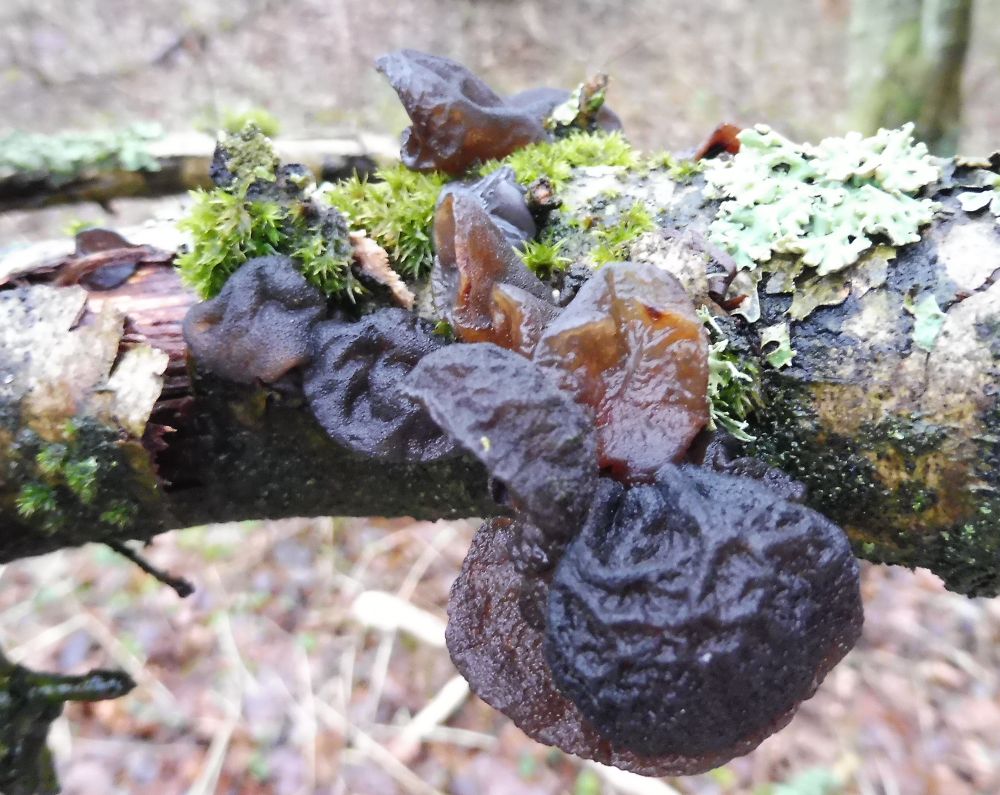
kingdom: Fungi
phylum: Basidiomycota
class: Agaricomycetes
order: Auriculariales
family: Auriculariaceae
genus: Exidia
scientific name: Exidia glandulosa
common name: ege-bævretop
